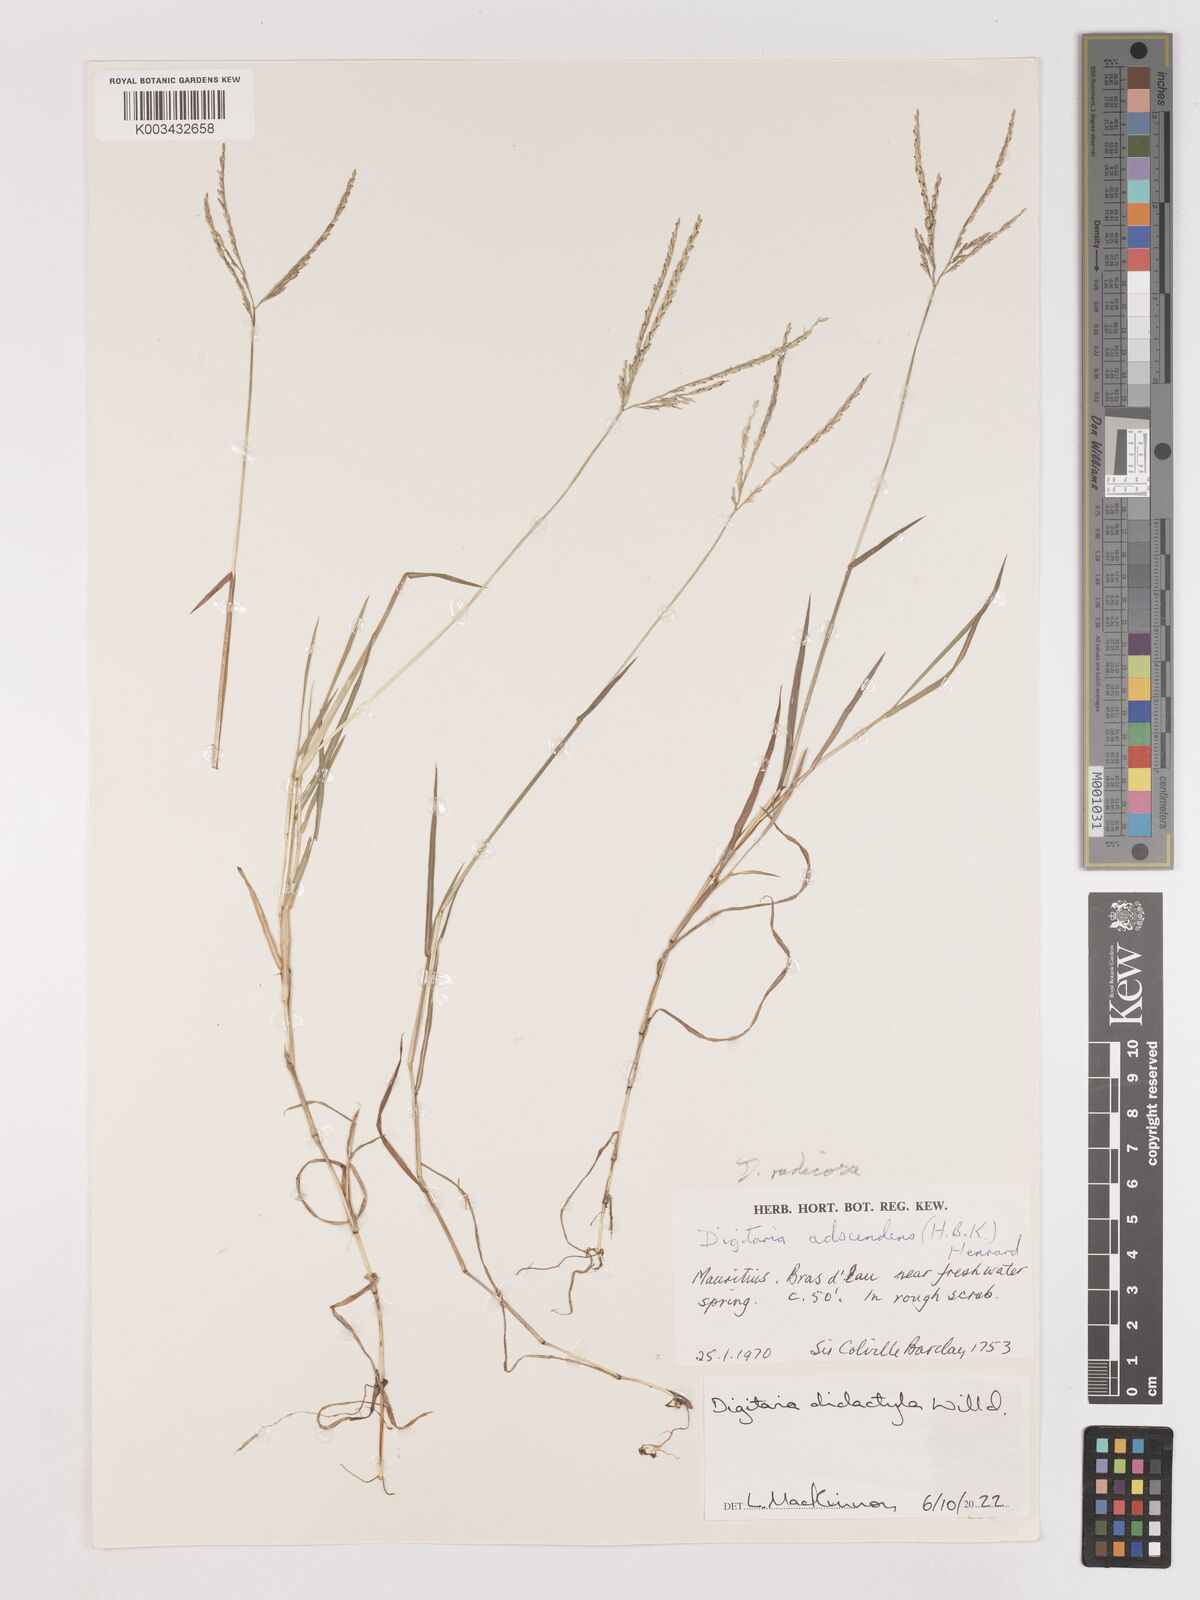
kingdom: Plantae
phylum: Tracheophyta
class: Liliopsida
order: Poales
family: Poaceae
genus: Digitaria
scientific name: Digitaria didactyla
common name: Blue couch
